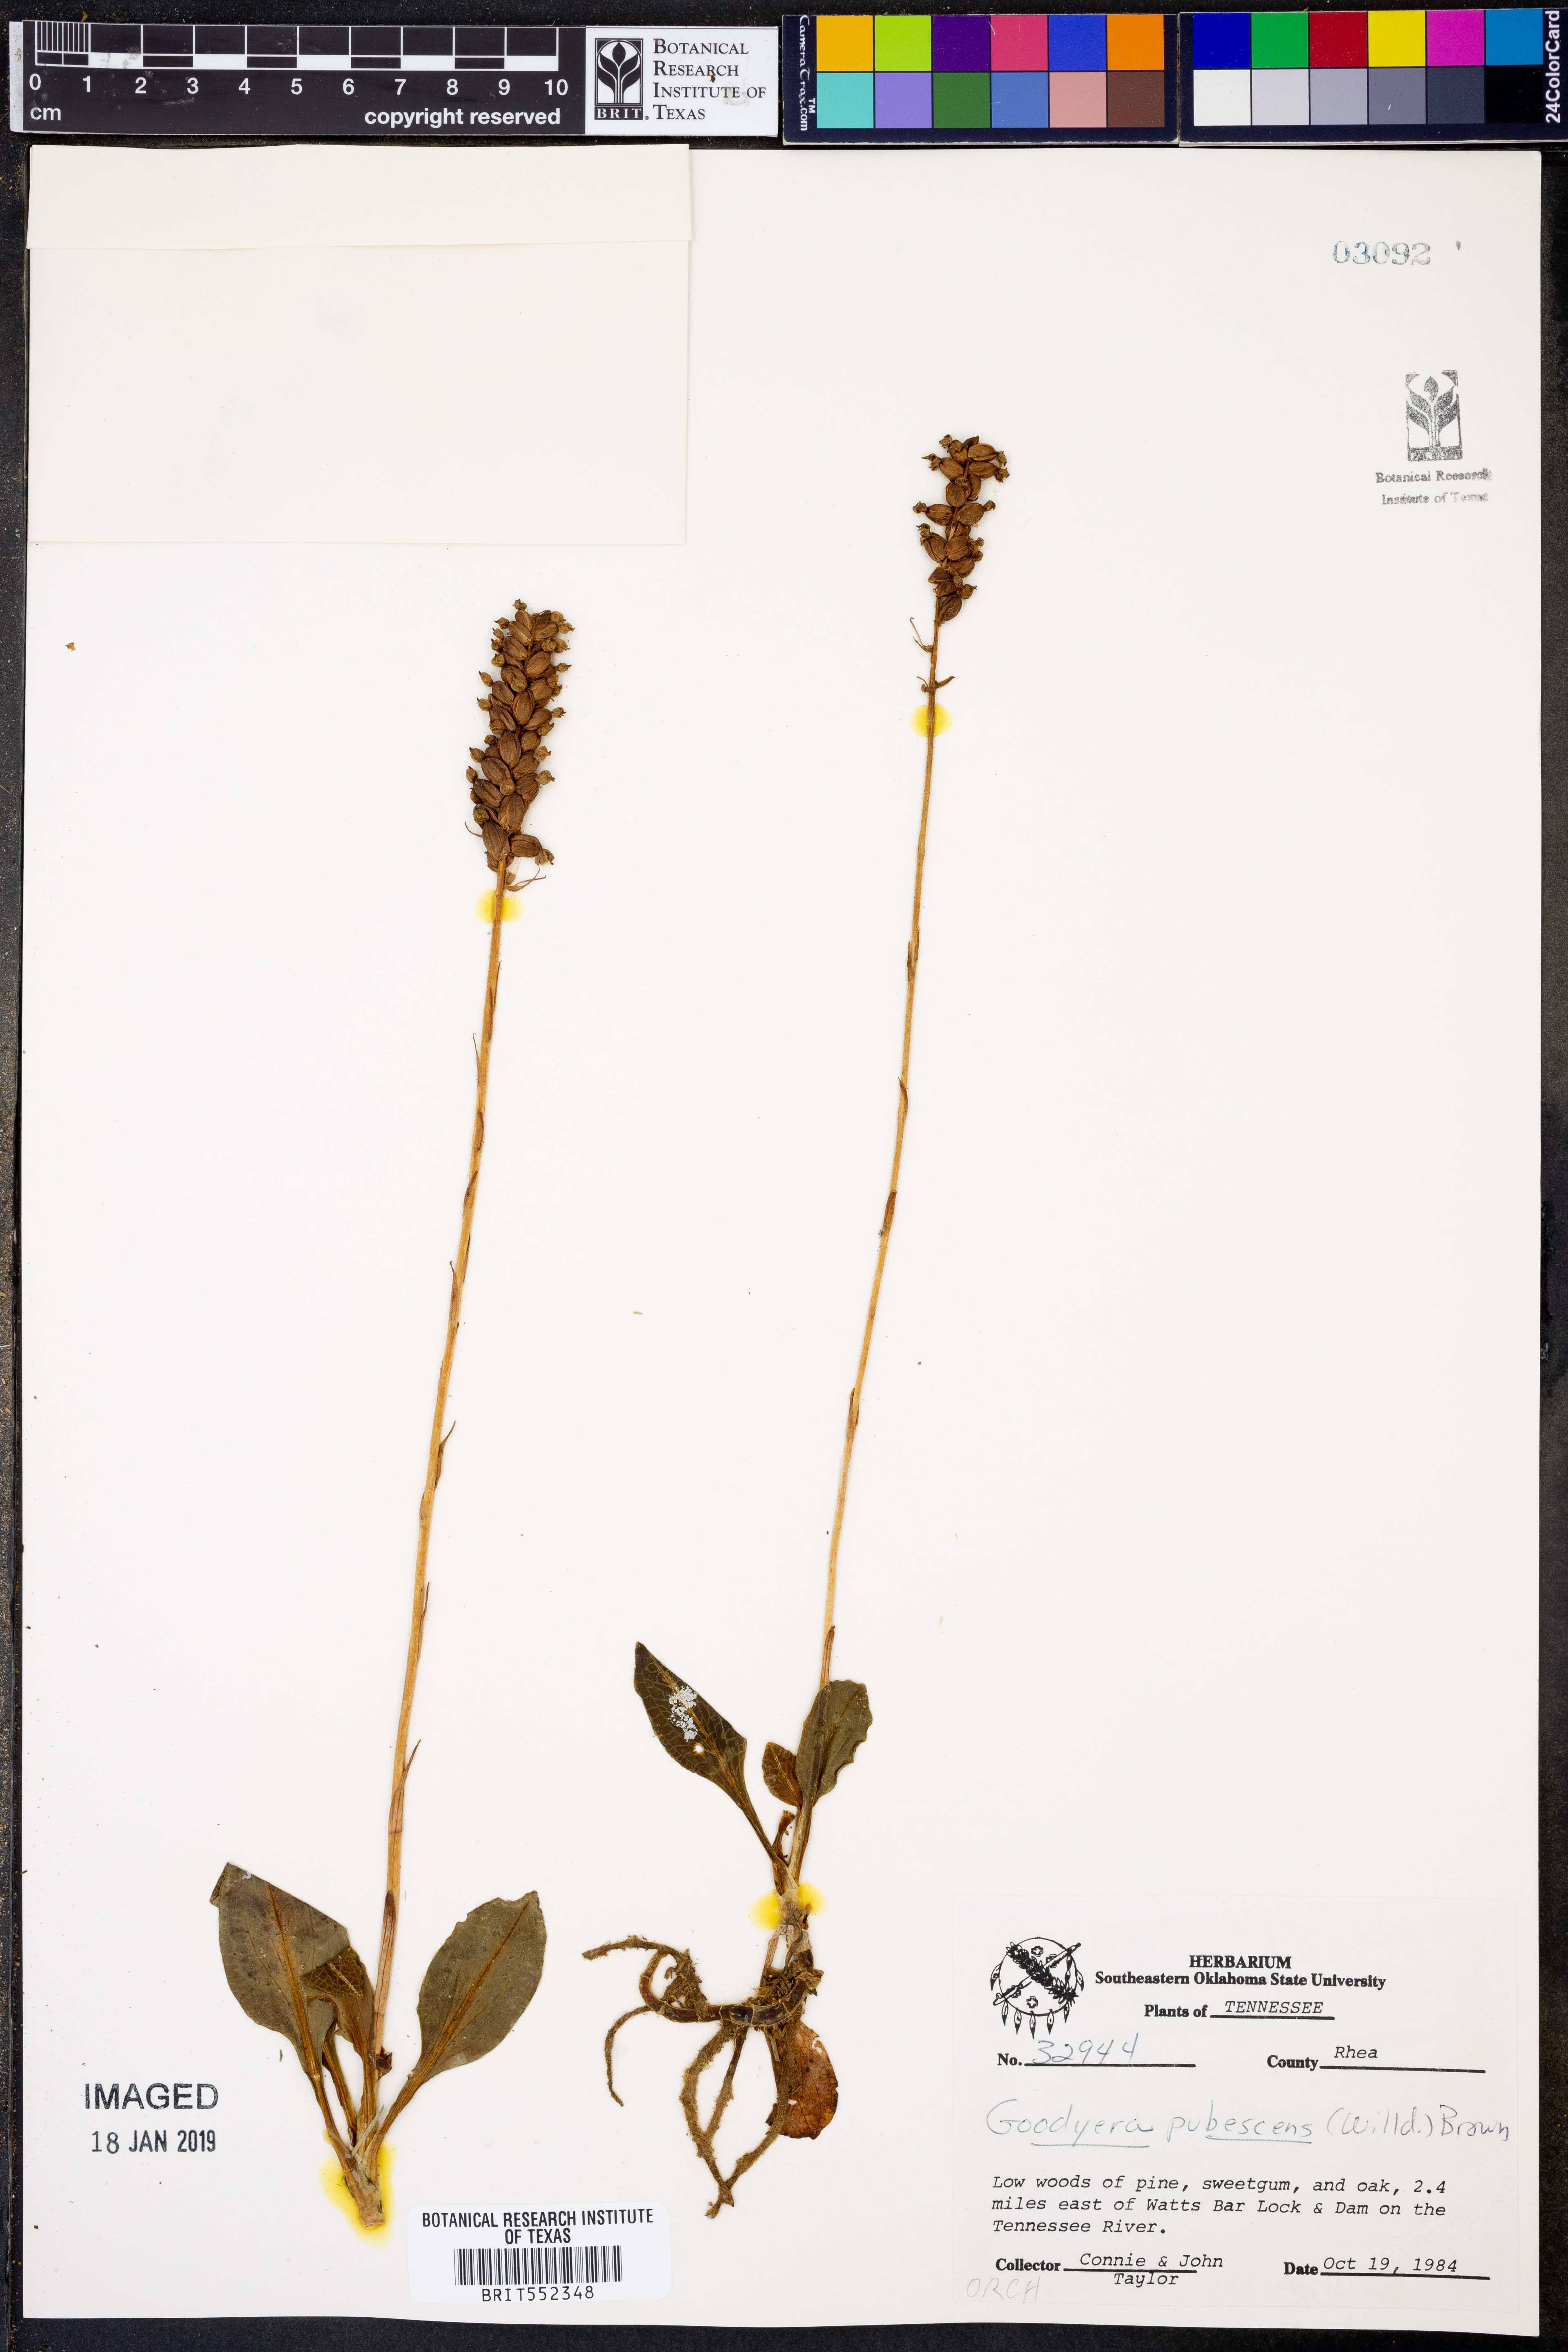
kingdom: Plantae
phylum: Tracheophyta
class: Liliopsida
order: Asparagales
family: Orchidaceae
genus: Goodyera
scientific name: Goodyera pubescens
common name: Downy rattlesnake-plantain
